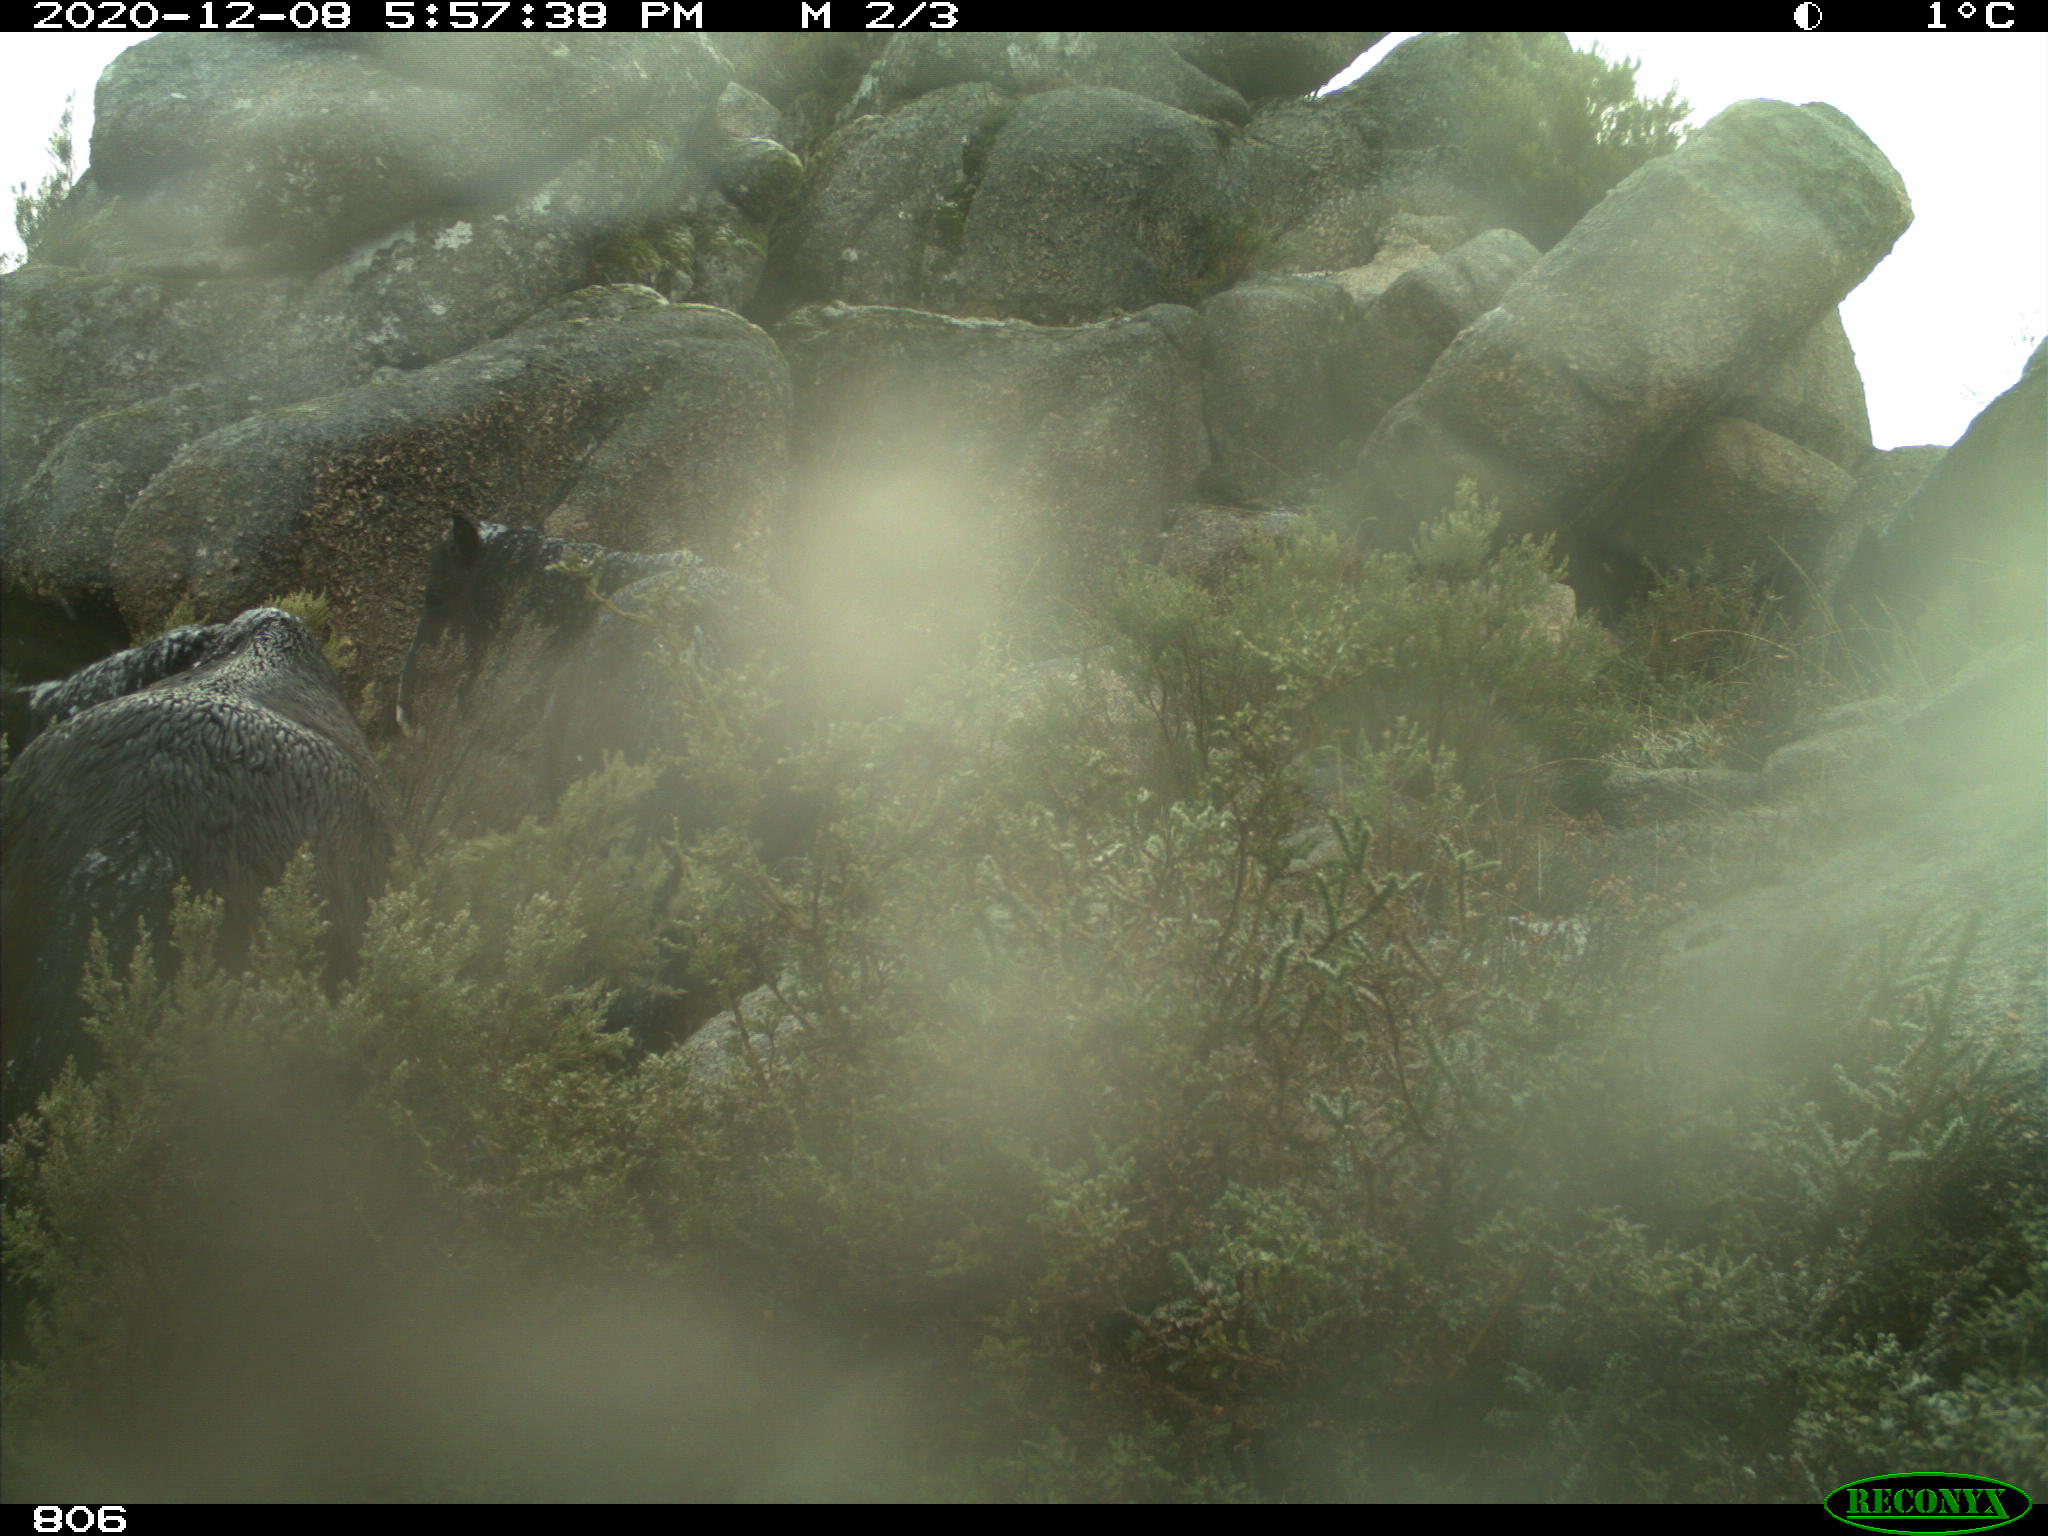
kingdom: Animalia
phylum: Chordata
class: Mammalia
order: Perissodactyla
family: Equidae
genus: Equus
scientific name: Equus caballus
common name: Horse
